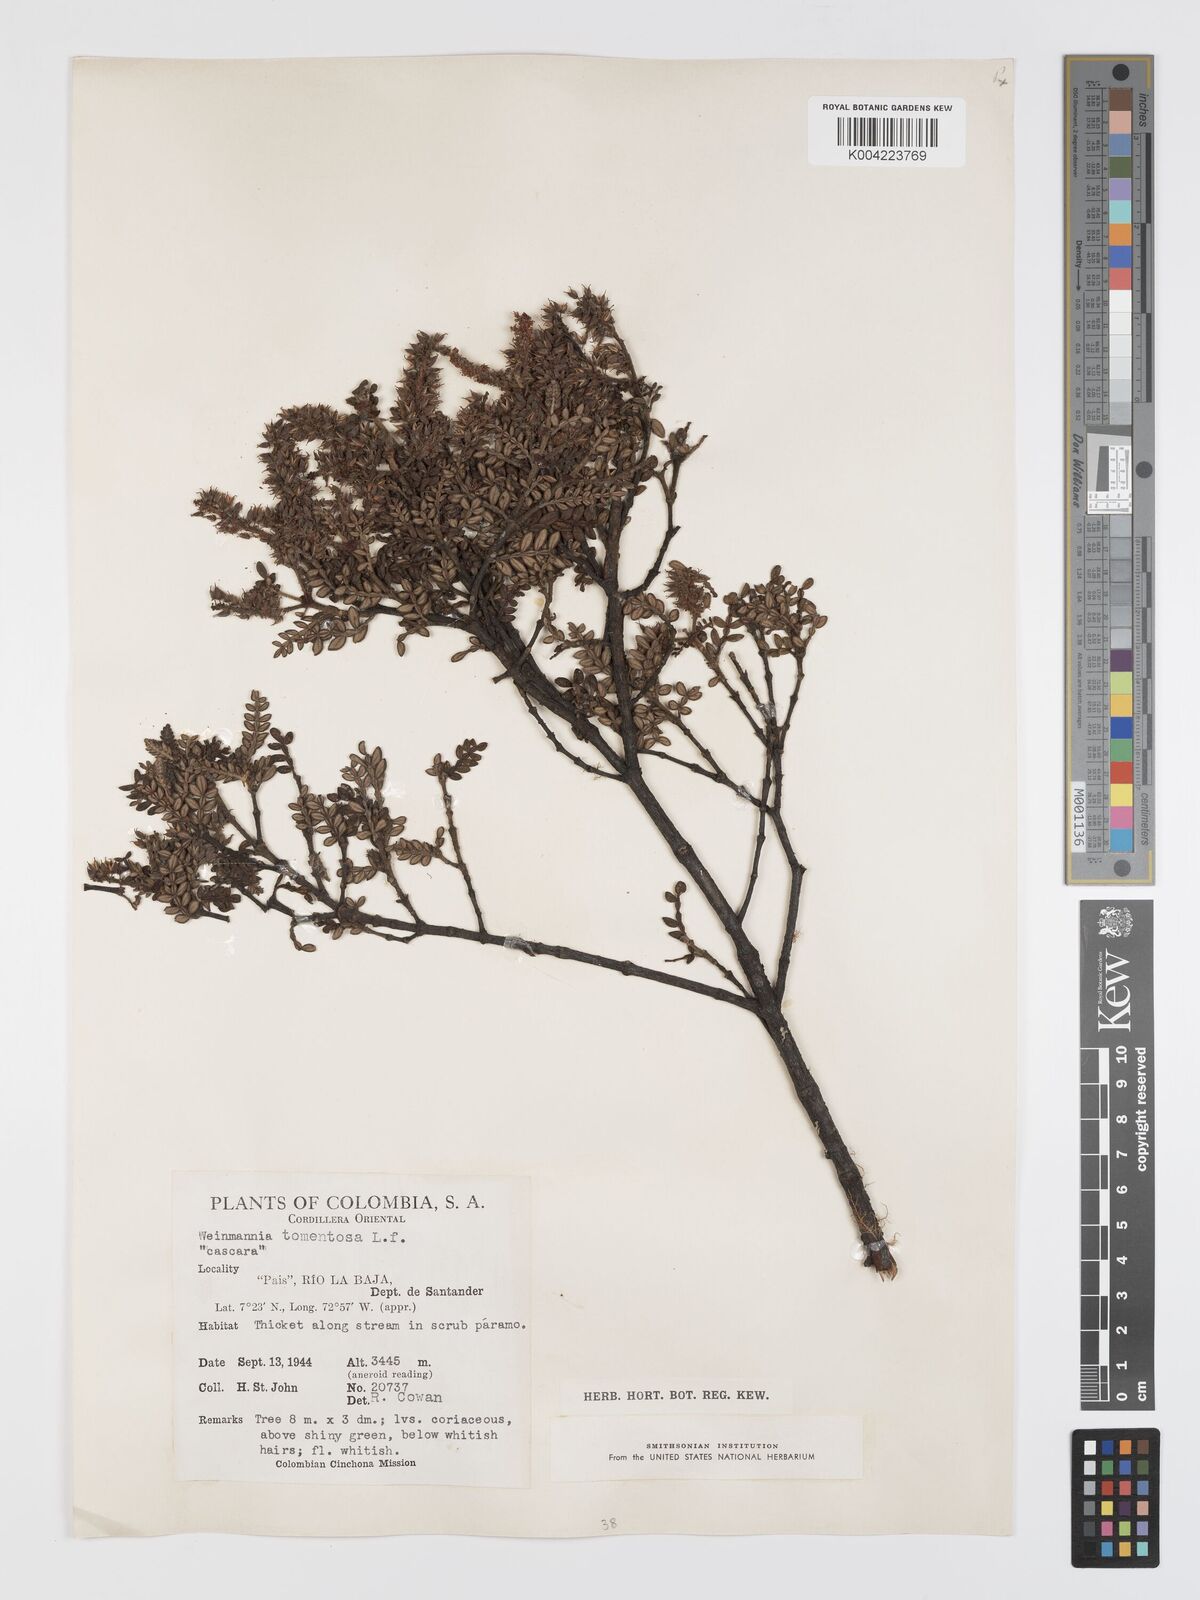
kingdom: Plantae
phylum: Tracheophyta
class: Magnoliopsida
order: Oxalidales
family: Cunoniaceae
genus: Weinmannia
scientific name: Weinmannia tomentosa
